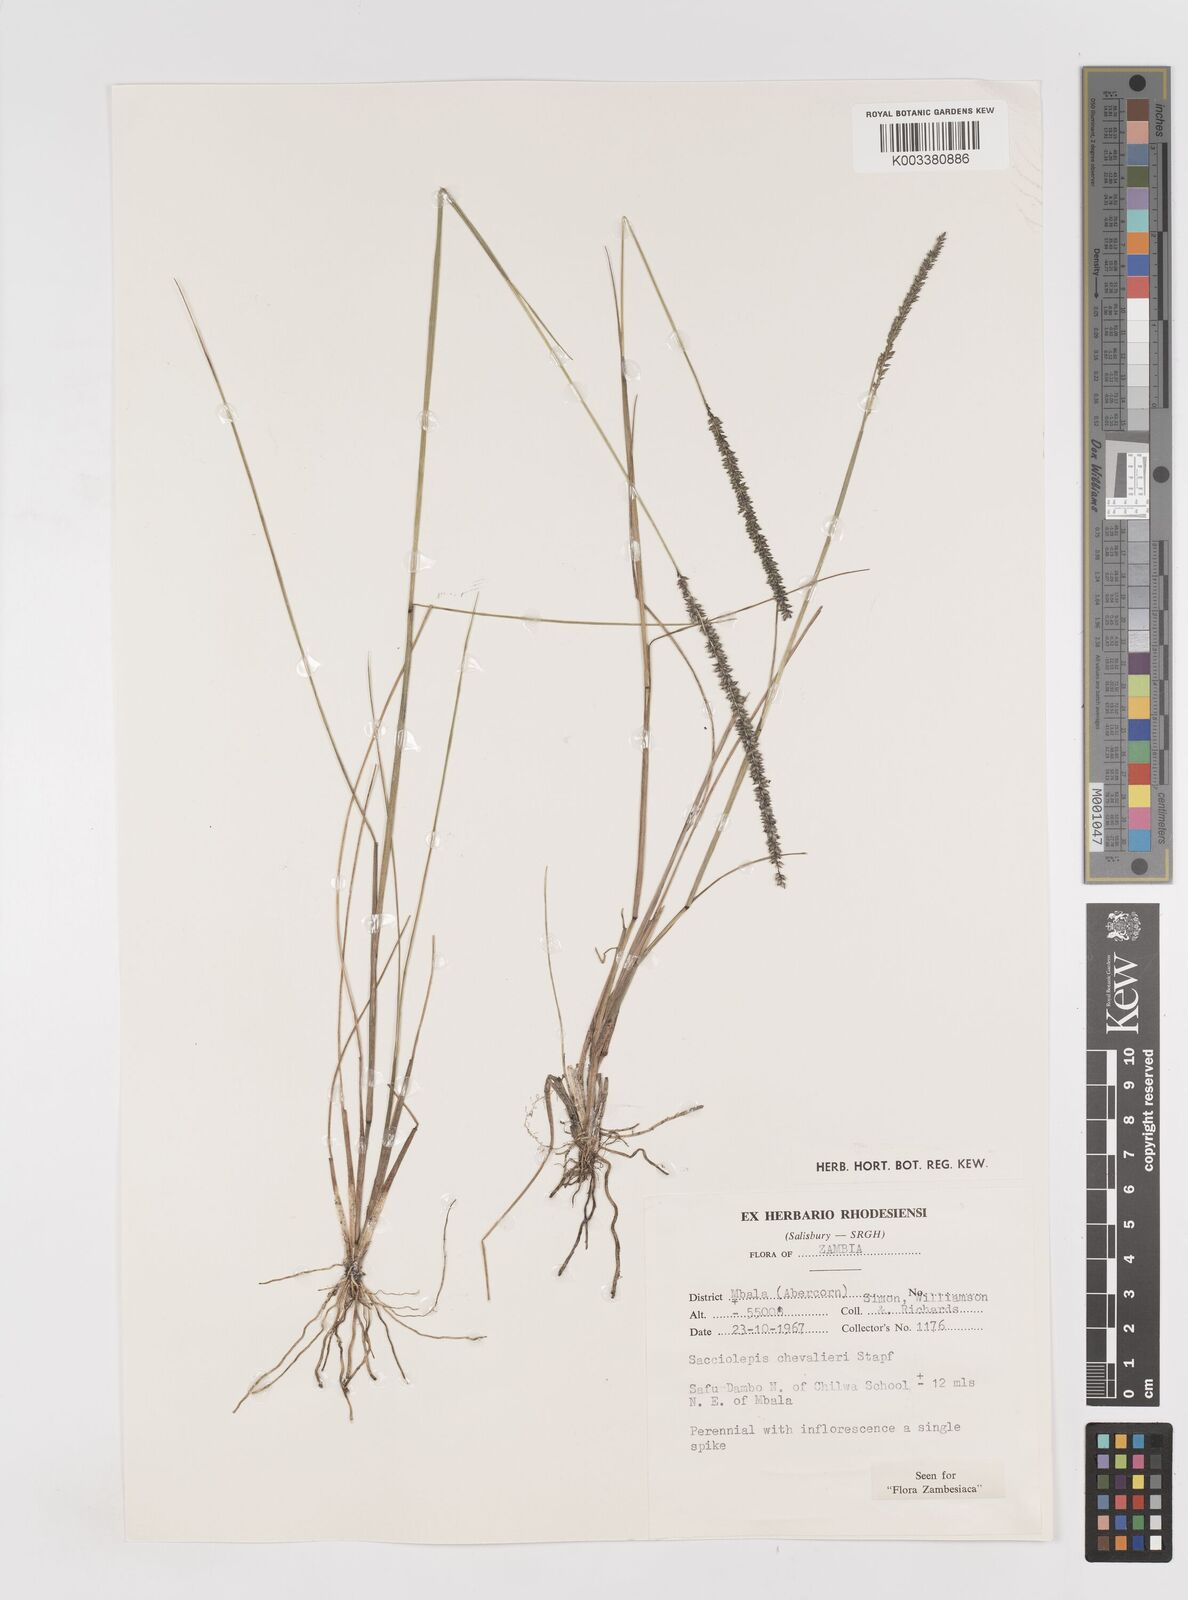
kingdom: Plantae
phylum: Tracheophyta
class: Liliopsida
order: Poales
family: Poaceae
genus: Sacciolepis
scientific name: Sacciolepis chevalieri
